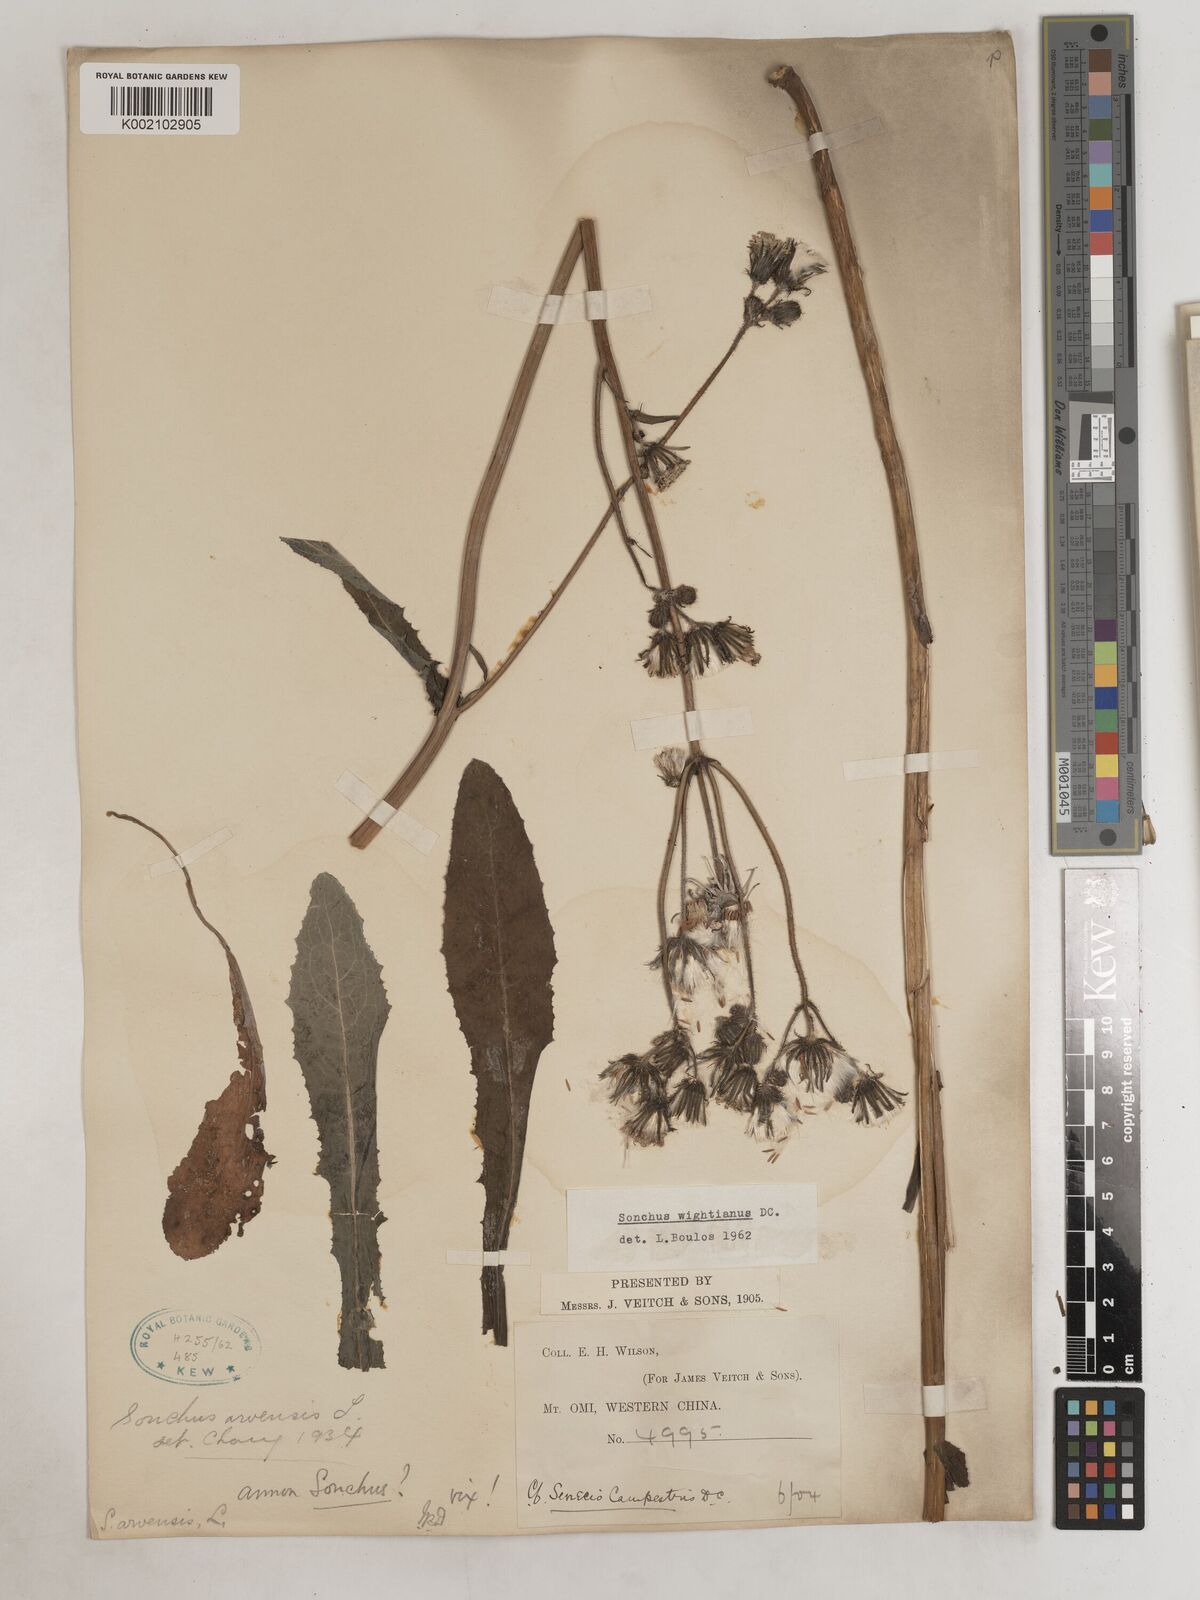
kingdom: Plantae
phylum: Tracheophyta
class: Magnoliopsida
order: Asterales
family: Asteraceae
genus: Sonchus
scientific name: Sonchus wightianus
